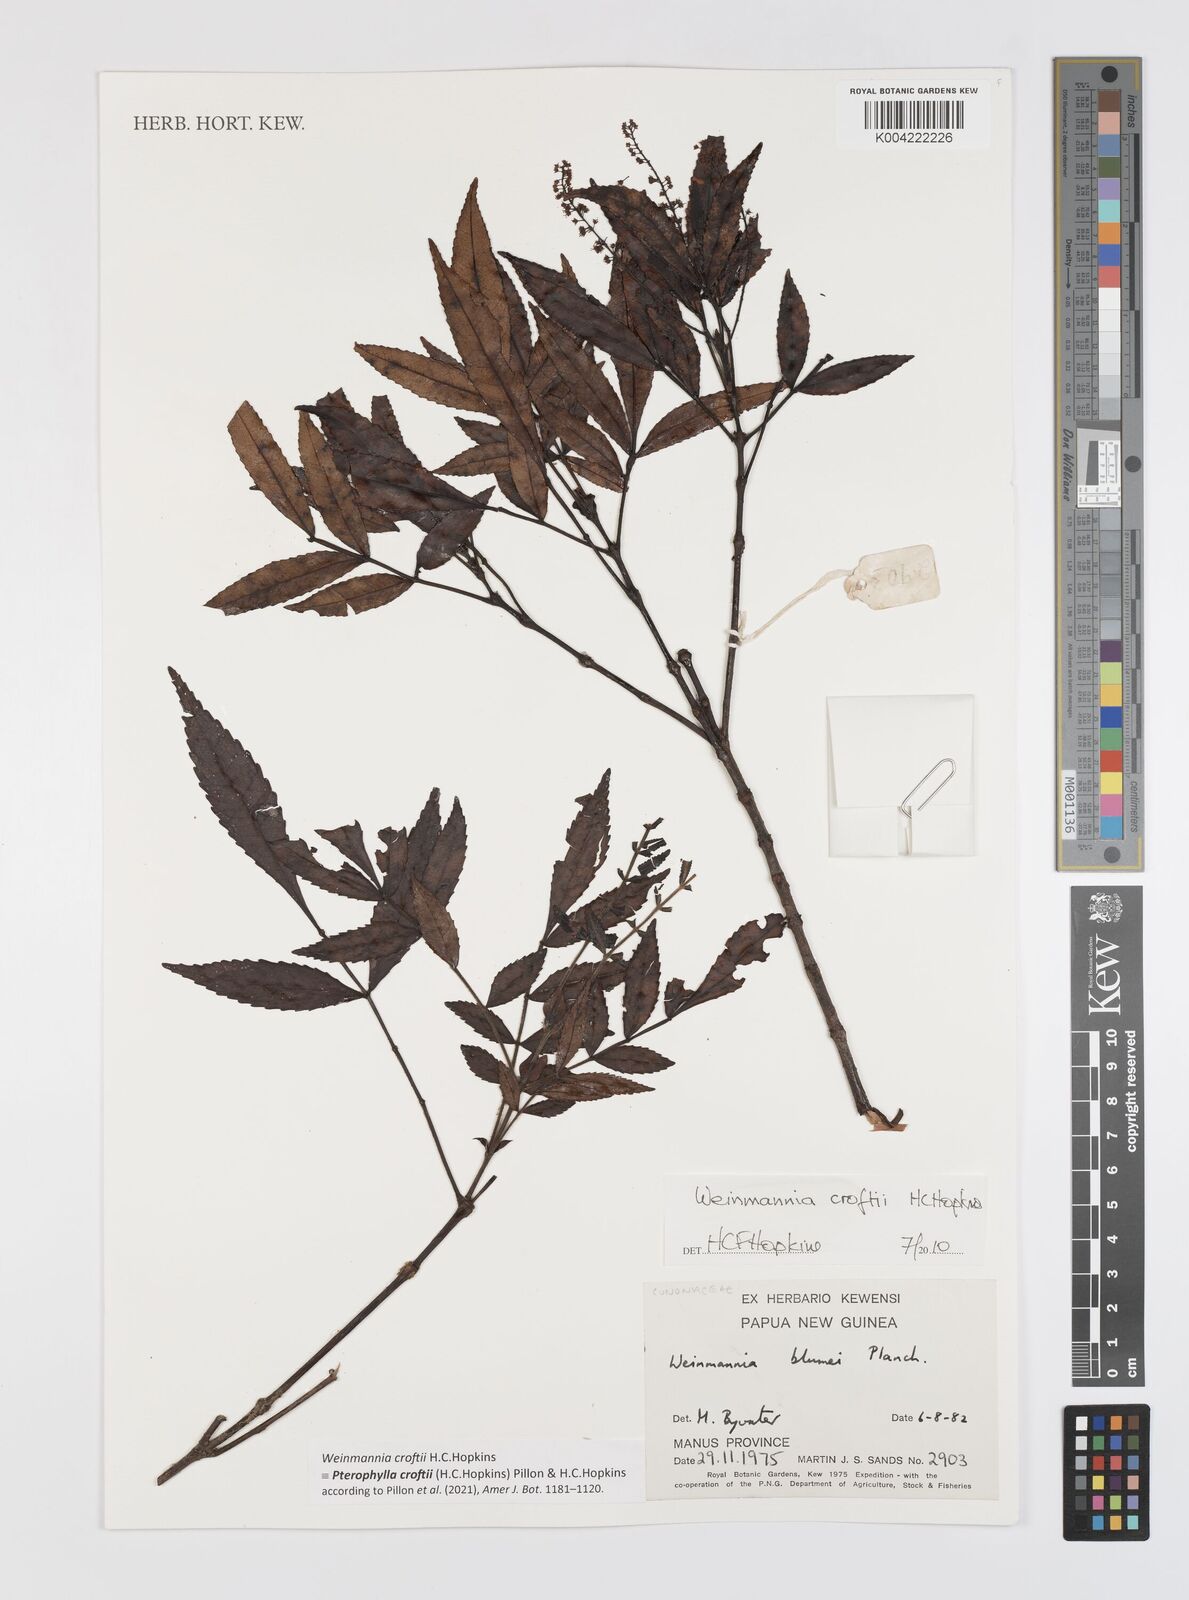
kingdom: Plantae
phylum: Tracheophyta
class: Magnoliopsida
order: Oxalidales
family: Cunoniaceae
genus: Pterophylla
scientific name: Pterophylla croftii
